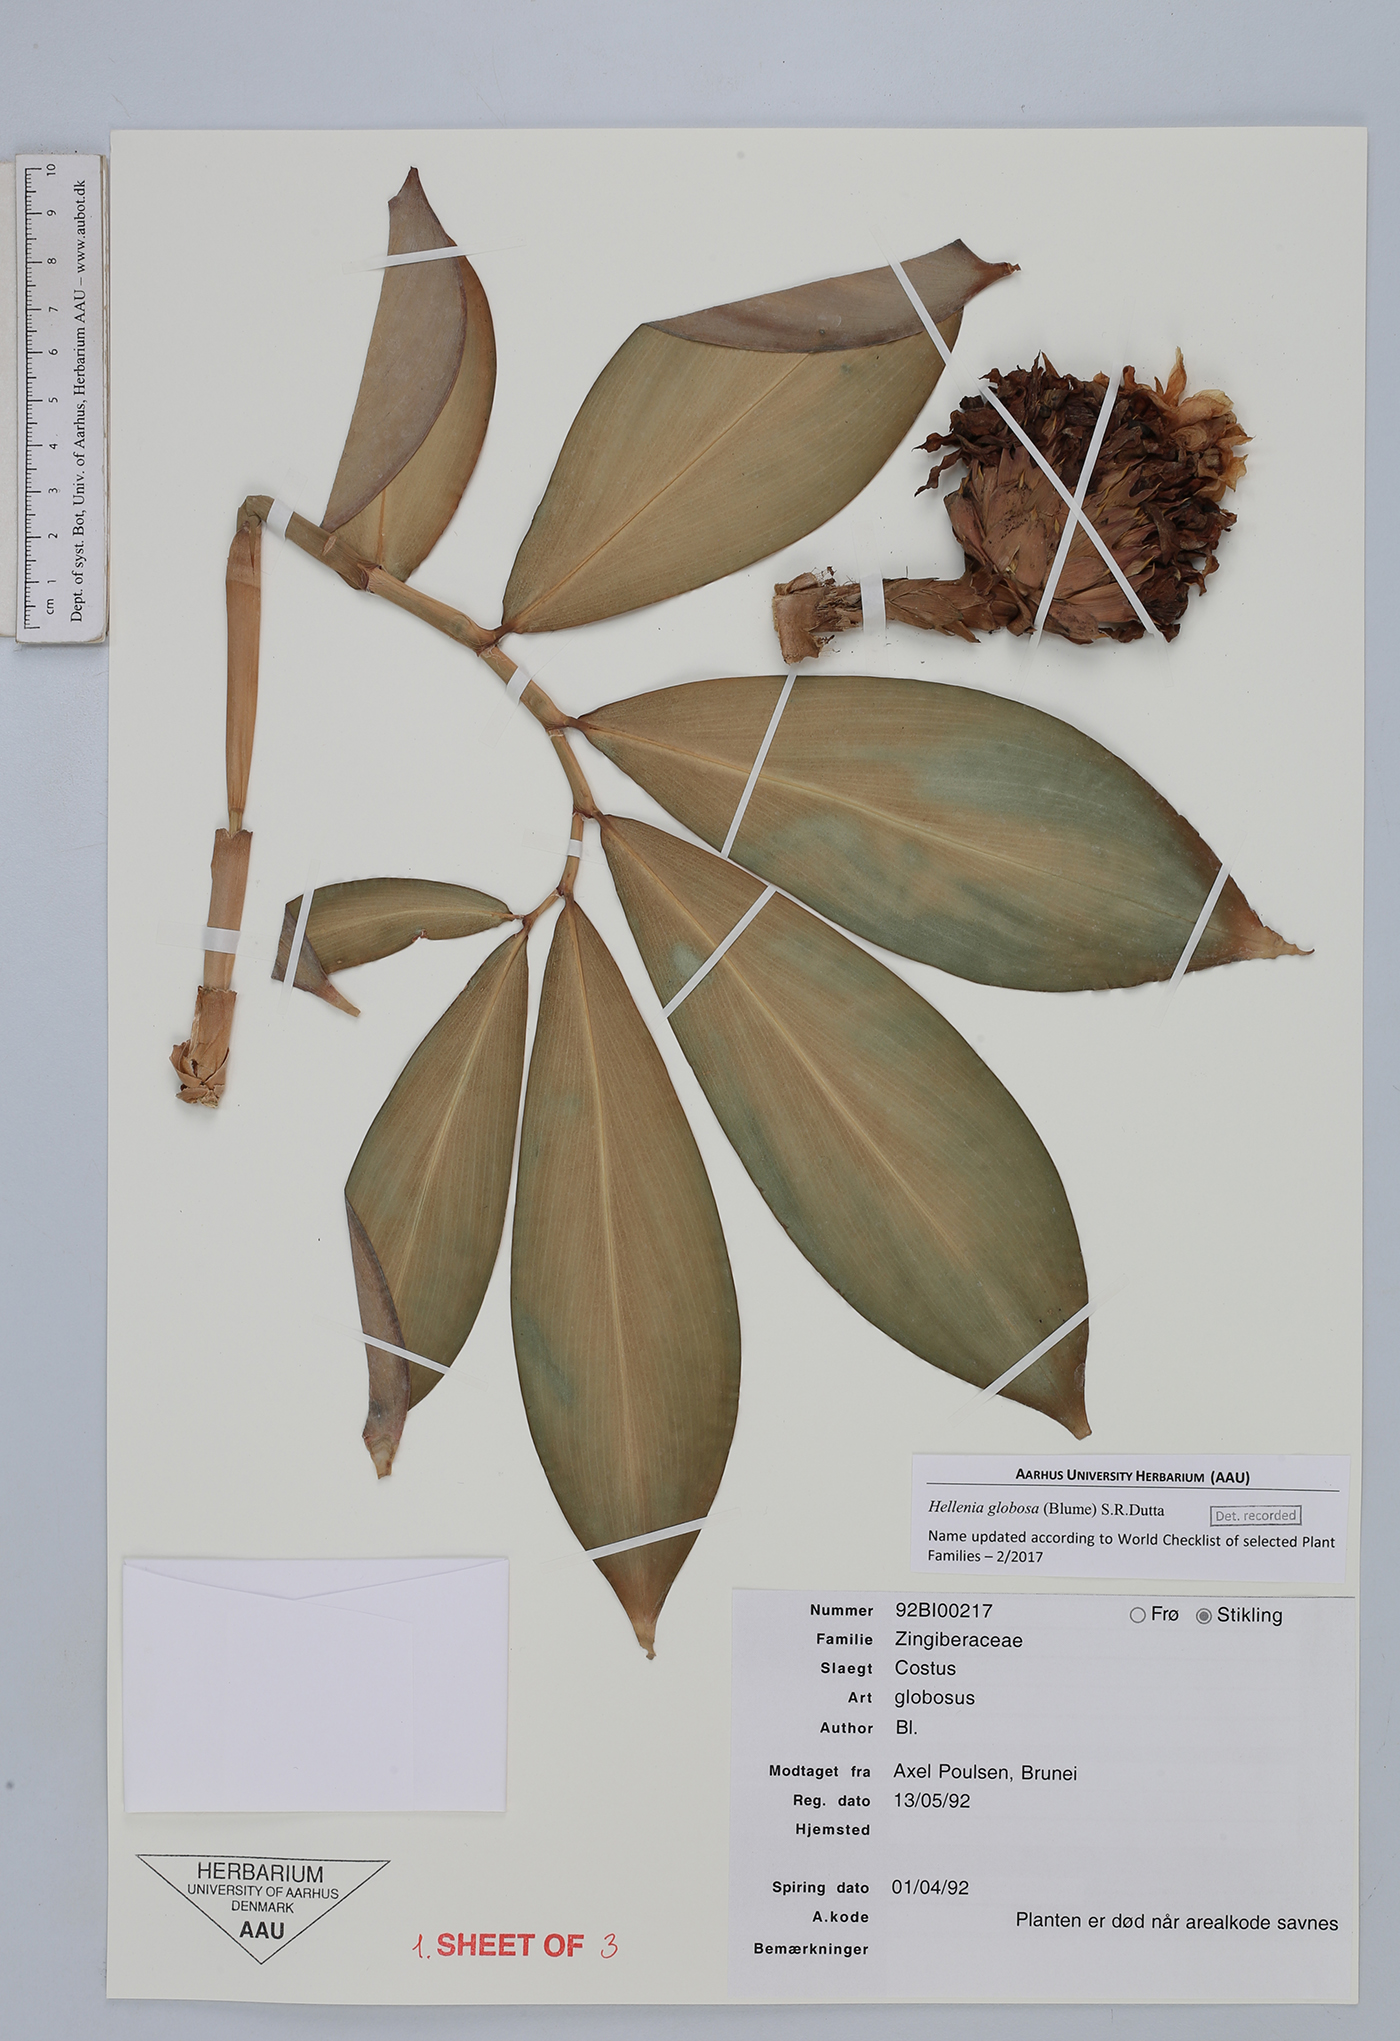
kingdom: Plantae
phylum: Tracheophyta
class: Liliopsida
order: Zingiberales
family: Costaceae
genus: Hellenia
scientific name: Hellenia globosa
